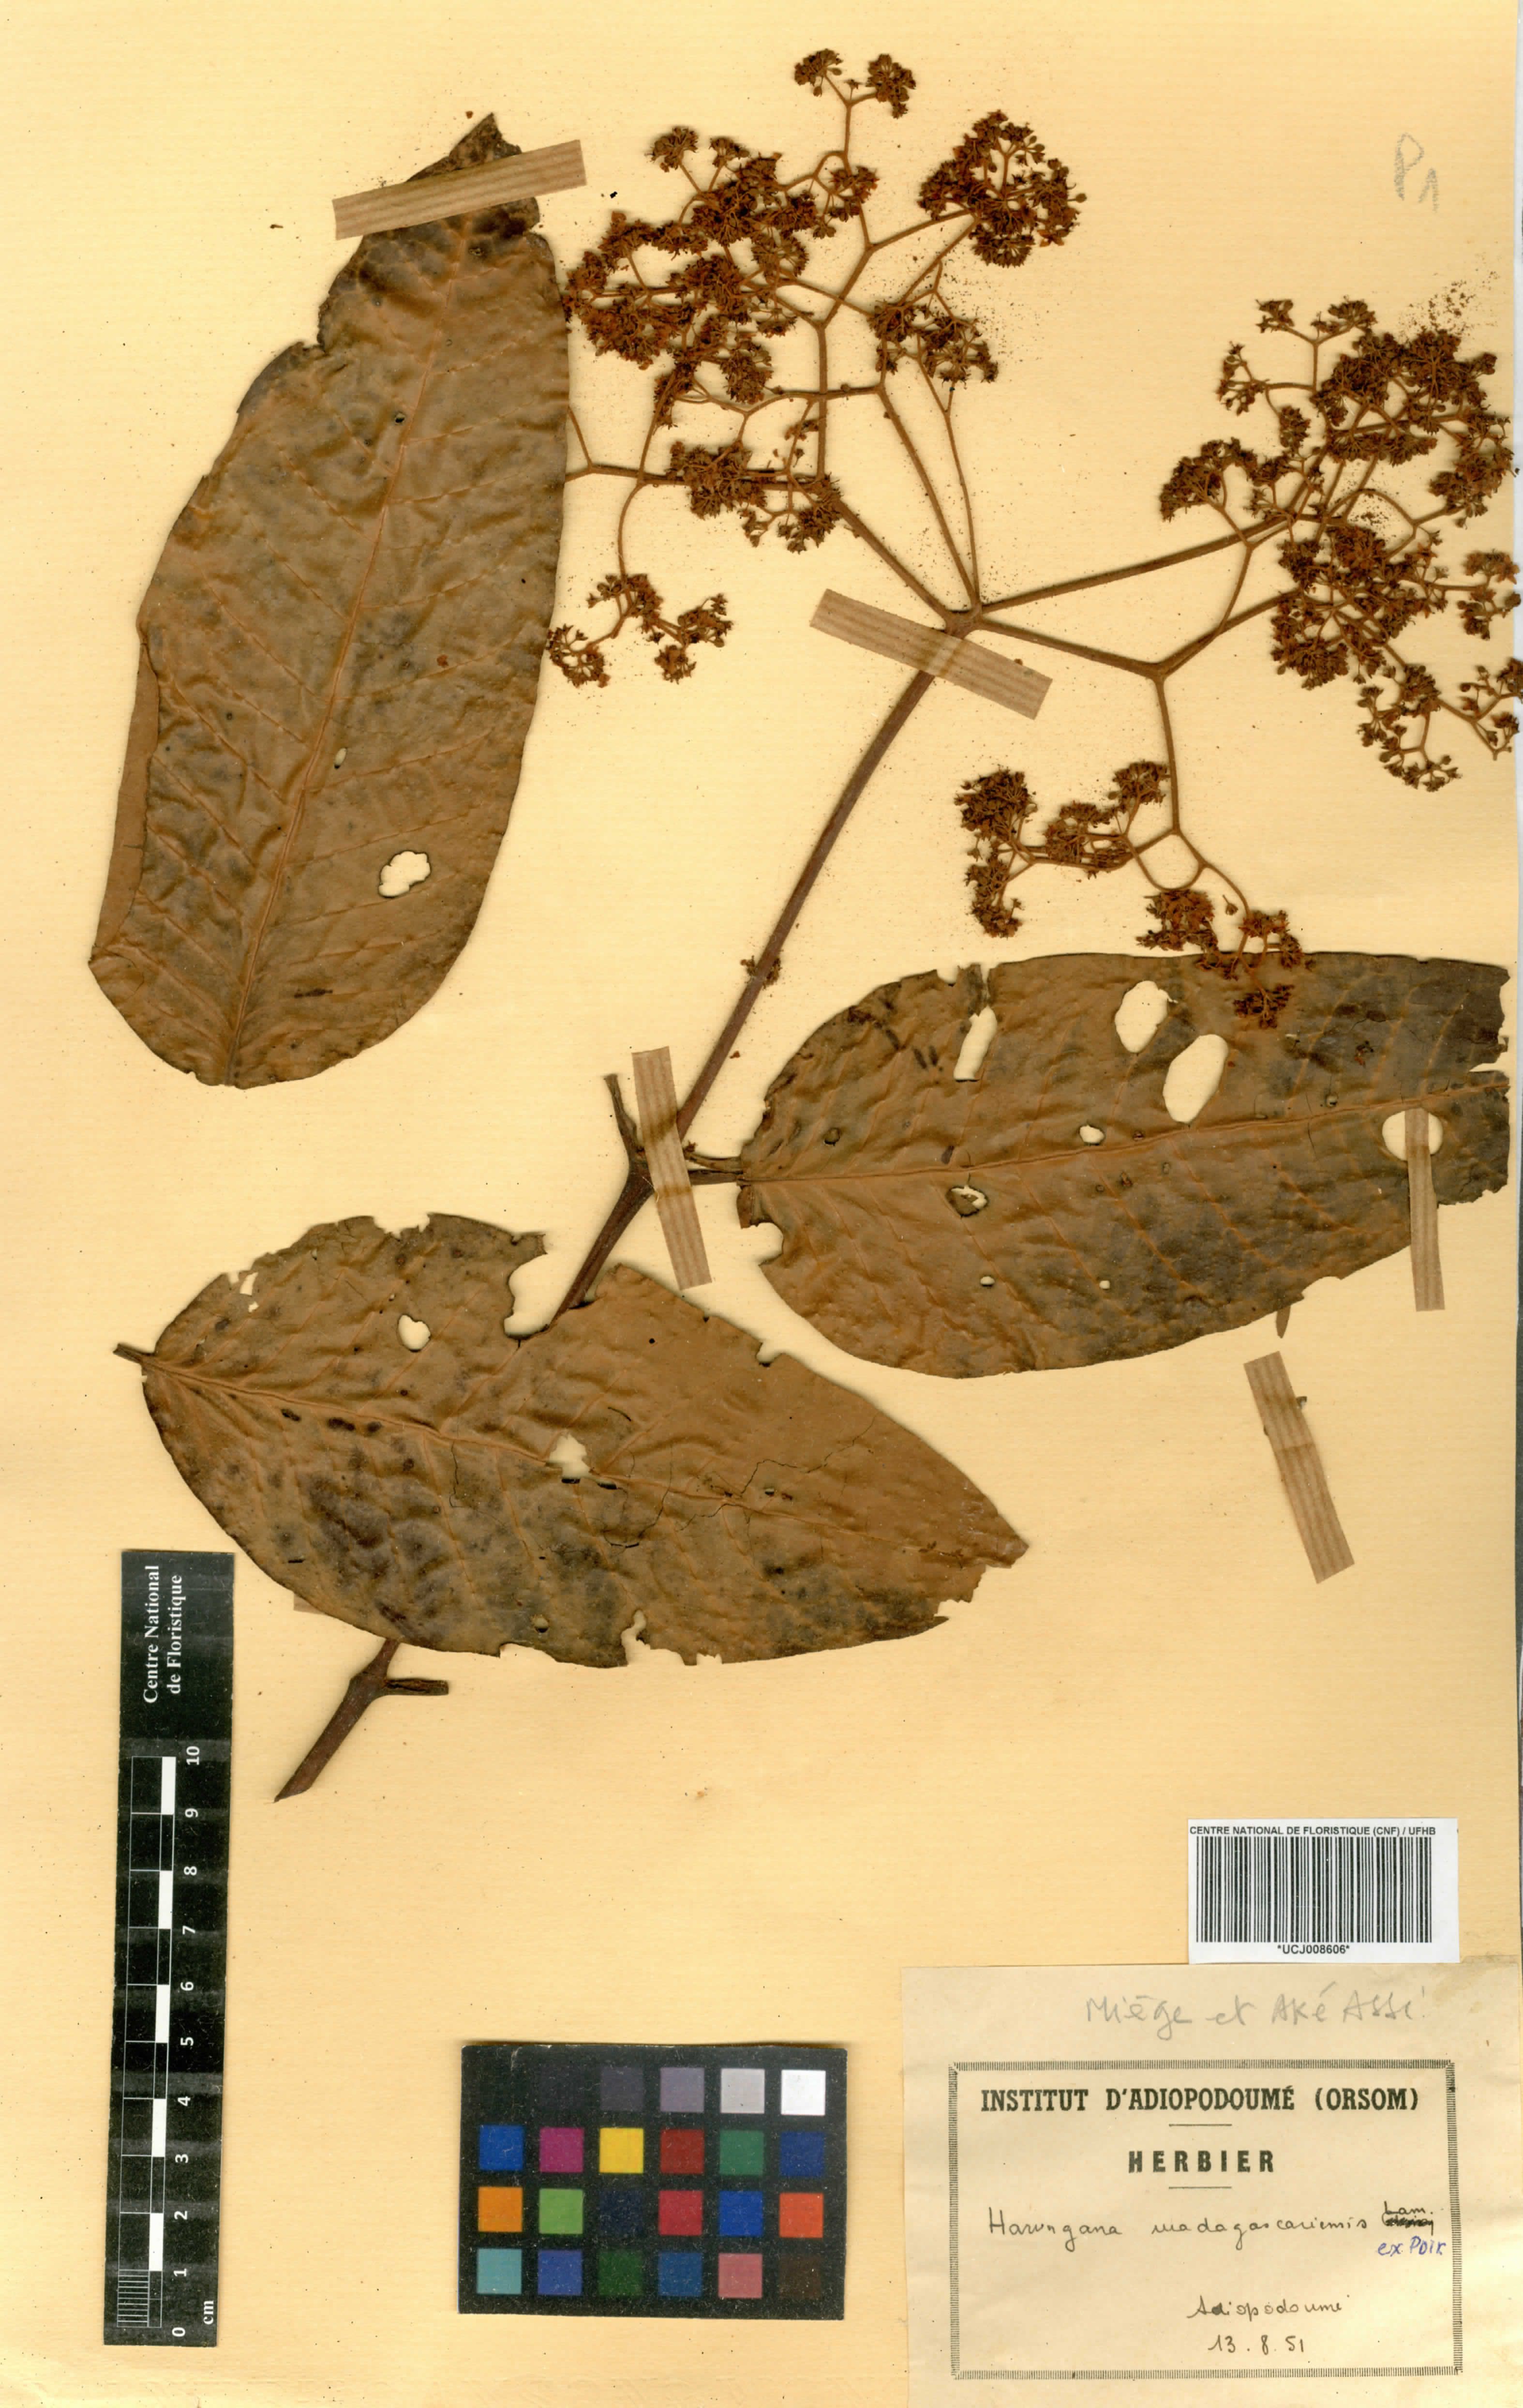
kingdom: Plantae
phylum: Tracheophyta
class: Magnoliopsida
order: Malpighiales
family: Hypericaceae
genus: Harungana
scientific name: Harungana madagascariensis
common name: Orange milktree
